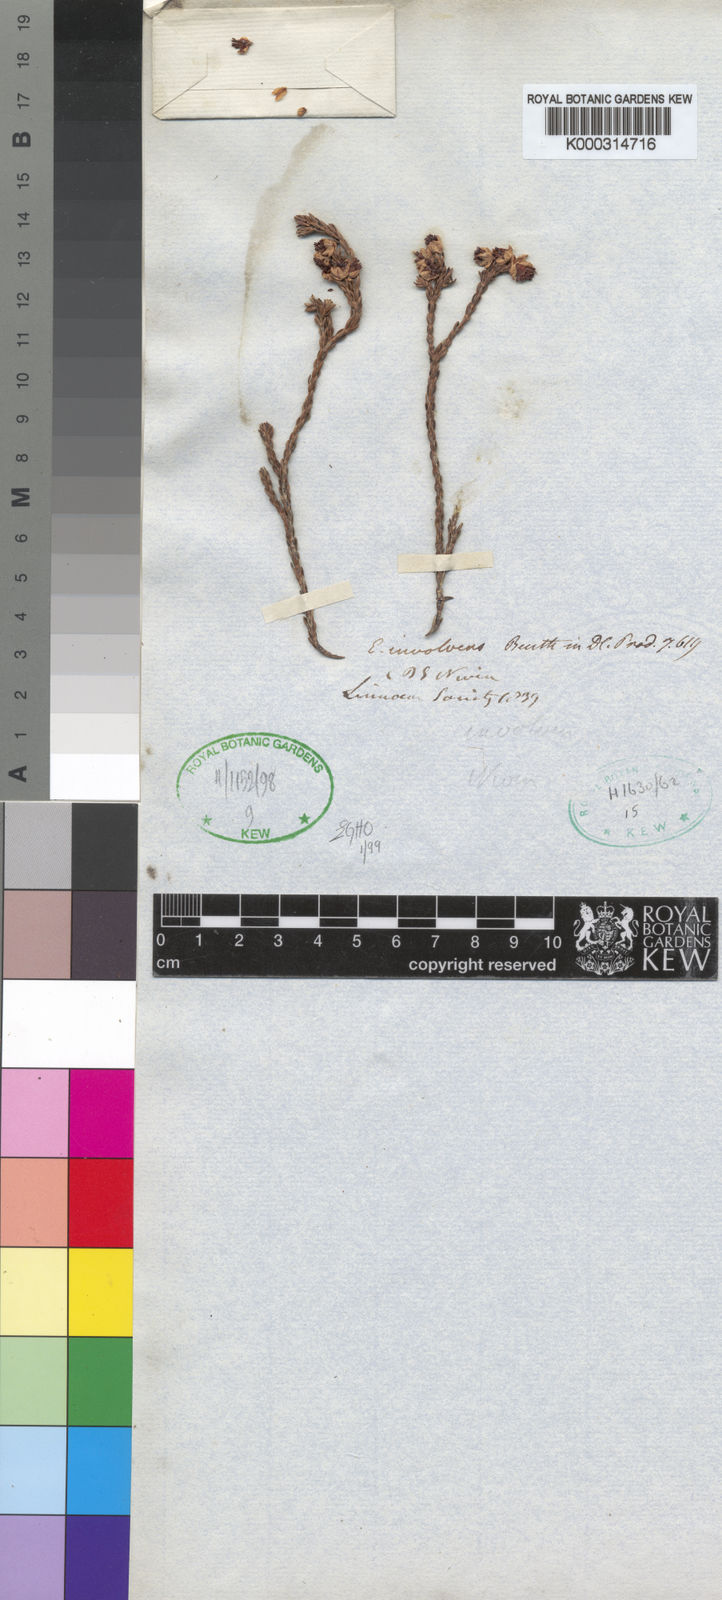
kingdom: Plantae
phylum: Tracheophyta
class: Magnoliopsida
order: Ericales
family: Ericaceae
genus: Erica
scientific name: Erica involvens
